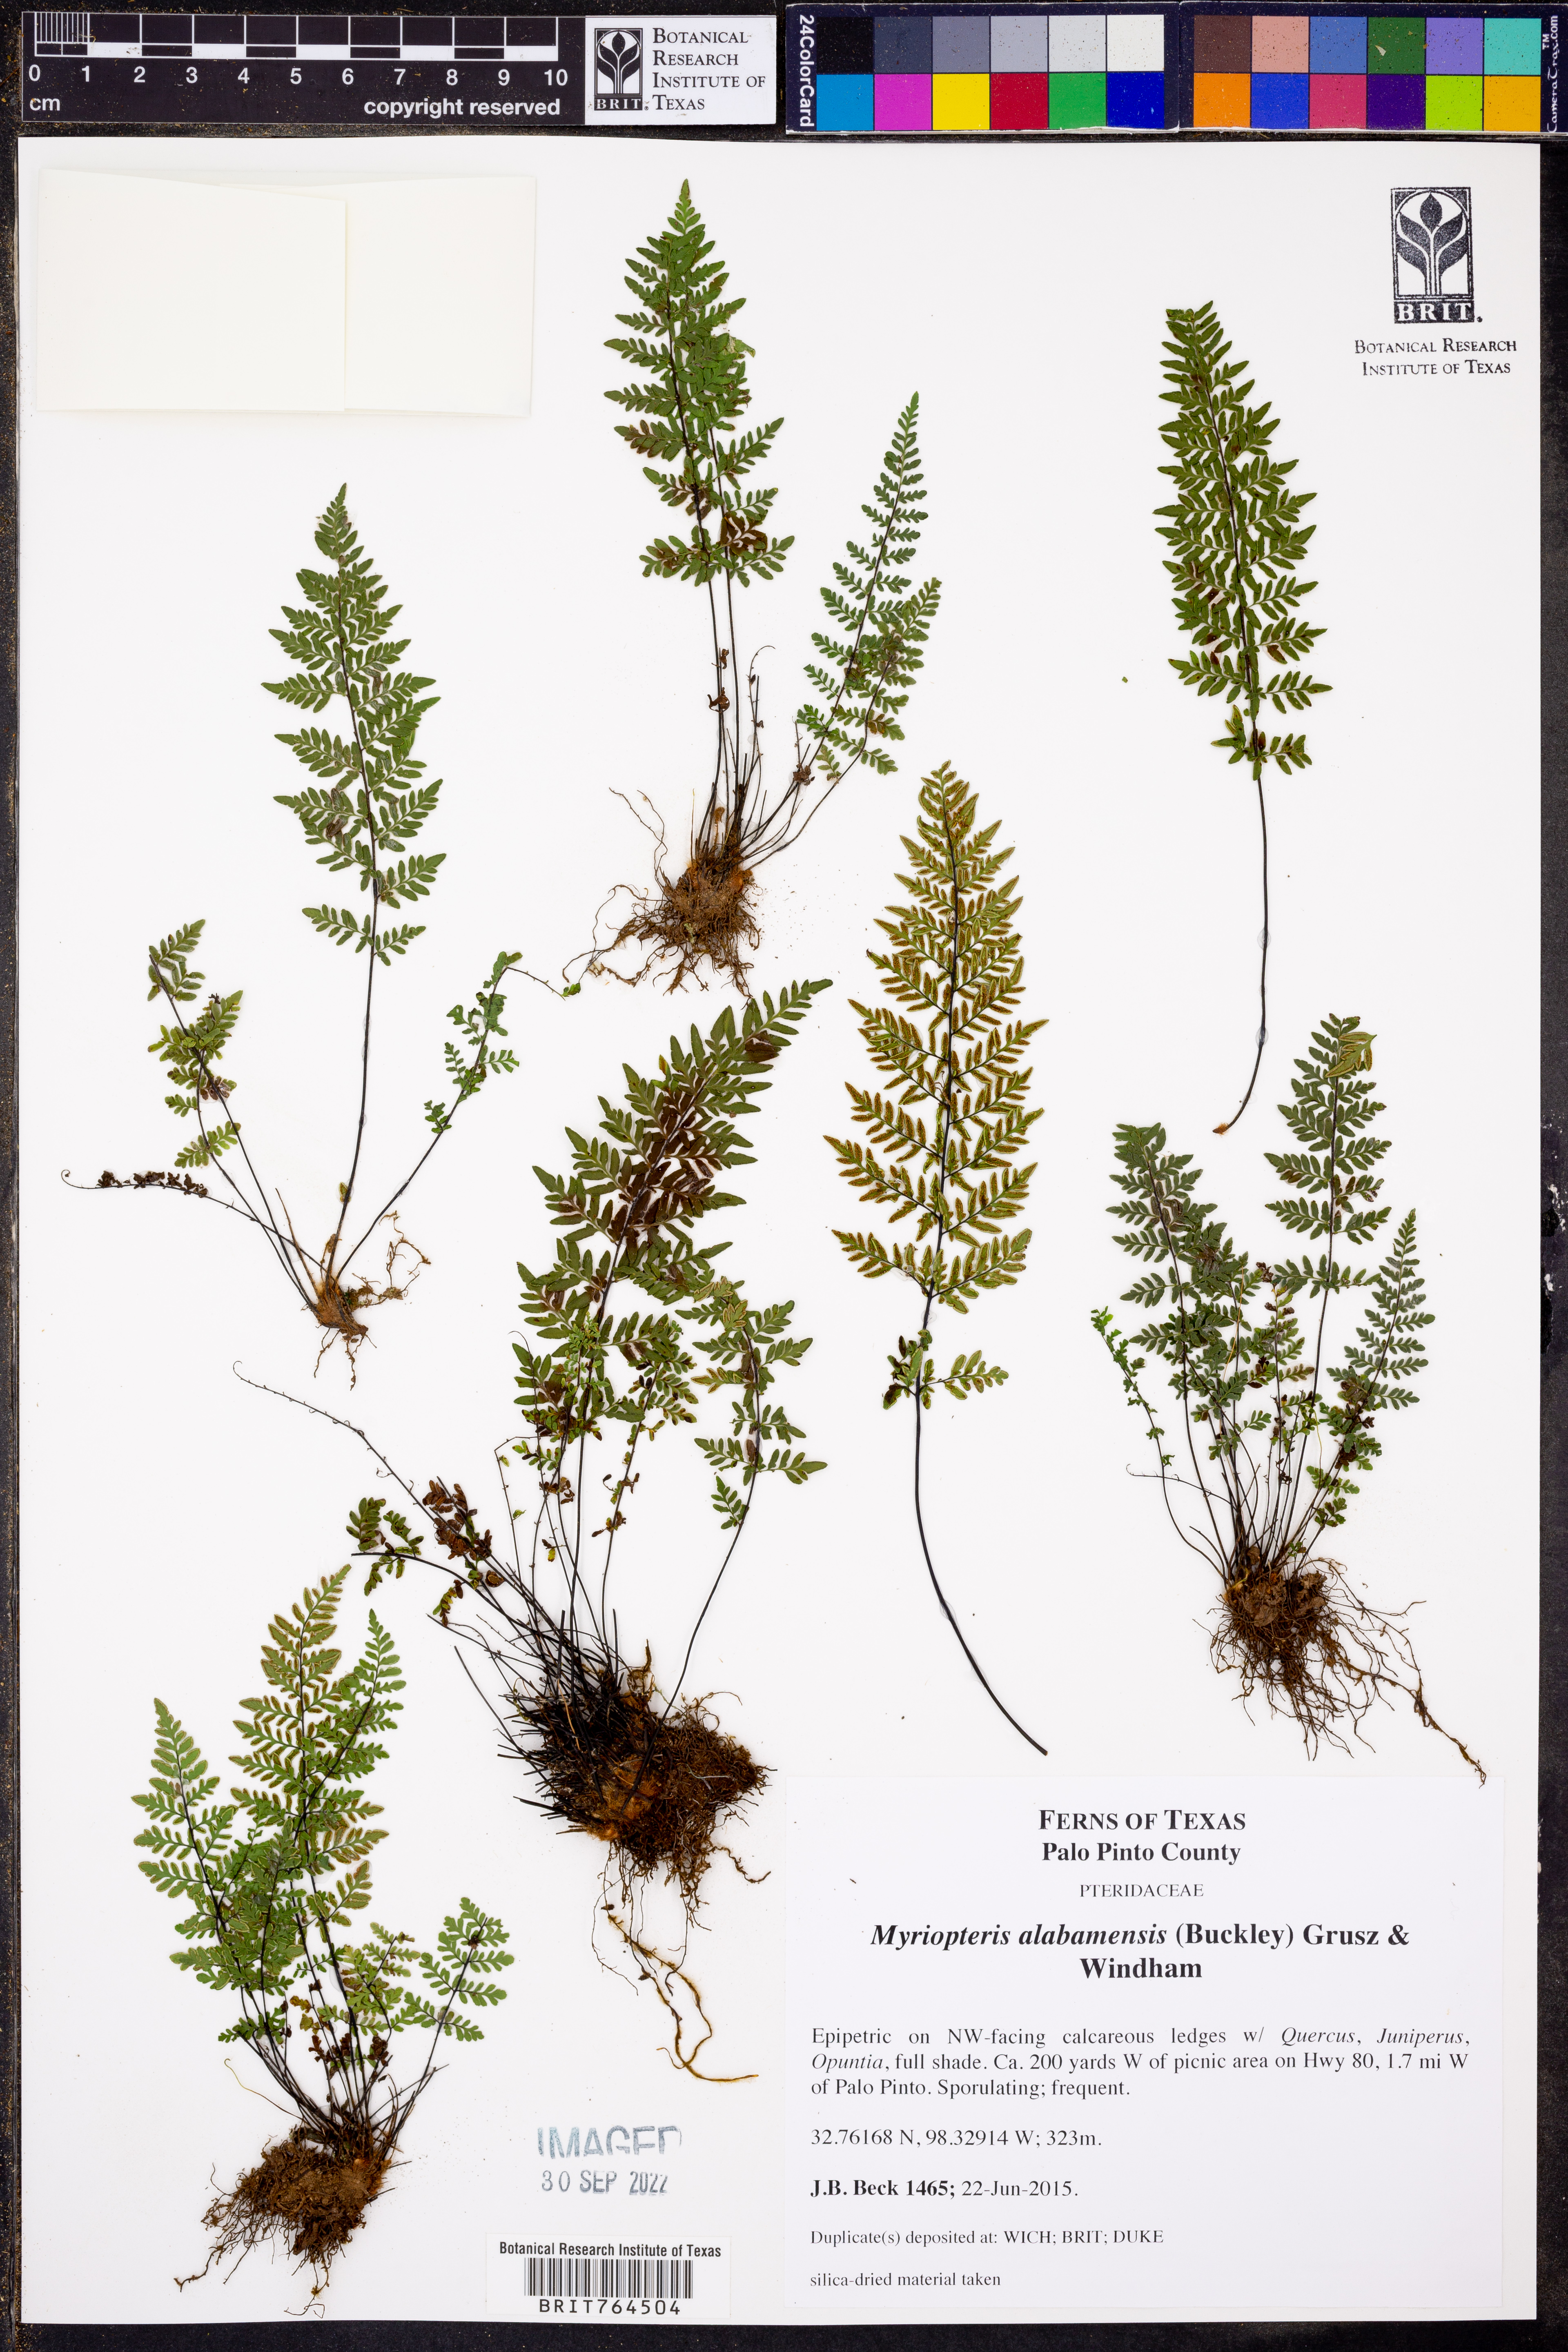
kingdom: Plantae
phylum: Tracheophyta
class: Polypodiopsida
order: Polypodiales
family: Pteridaceae
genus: Myriopteris
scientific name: Myriopteris alabamensis
